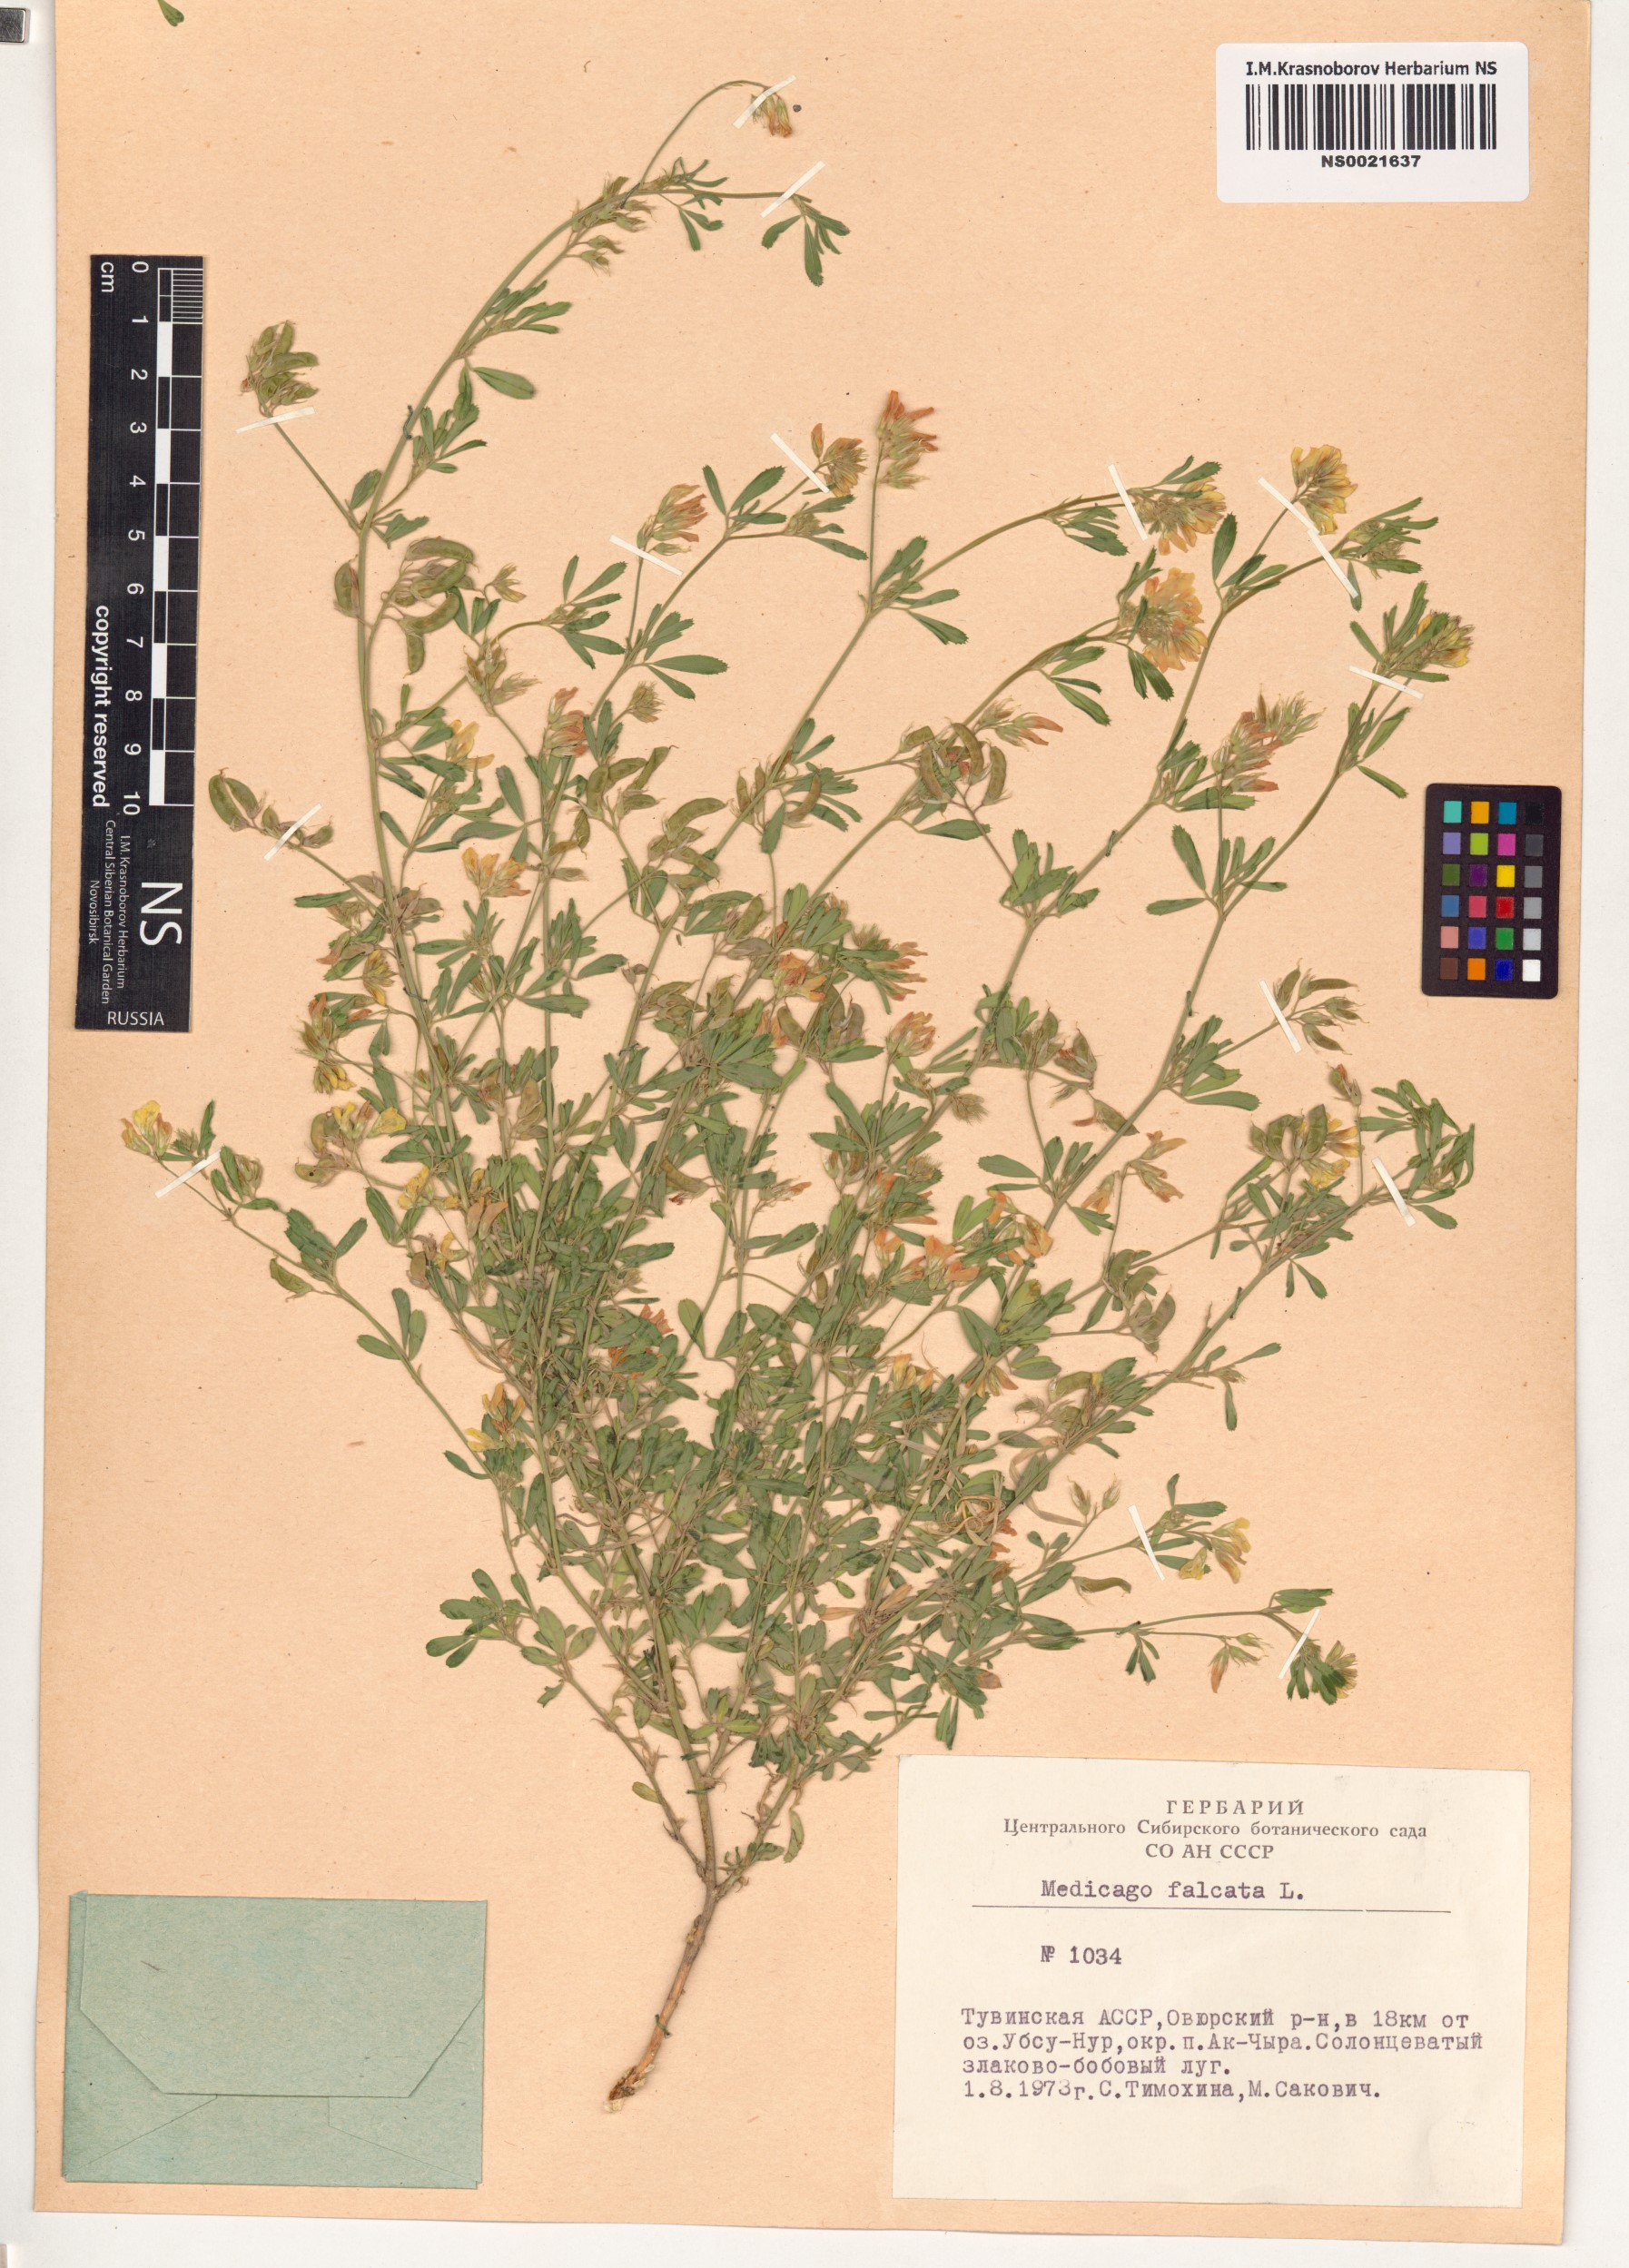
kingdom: Plantae
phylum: Tracheophyta
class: Magnoliopsida
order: Fabales
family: Fabaceae
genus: Medicago
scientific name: Medicago falcata
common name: Sickle medick
